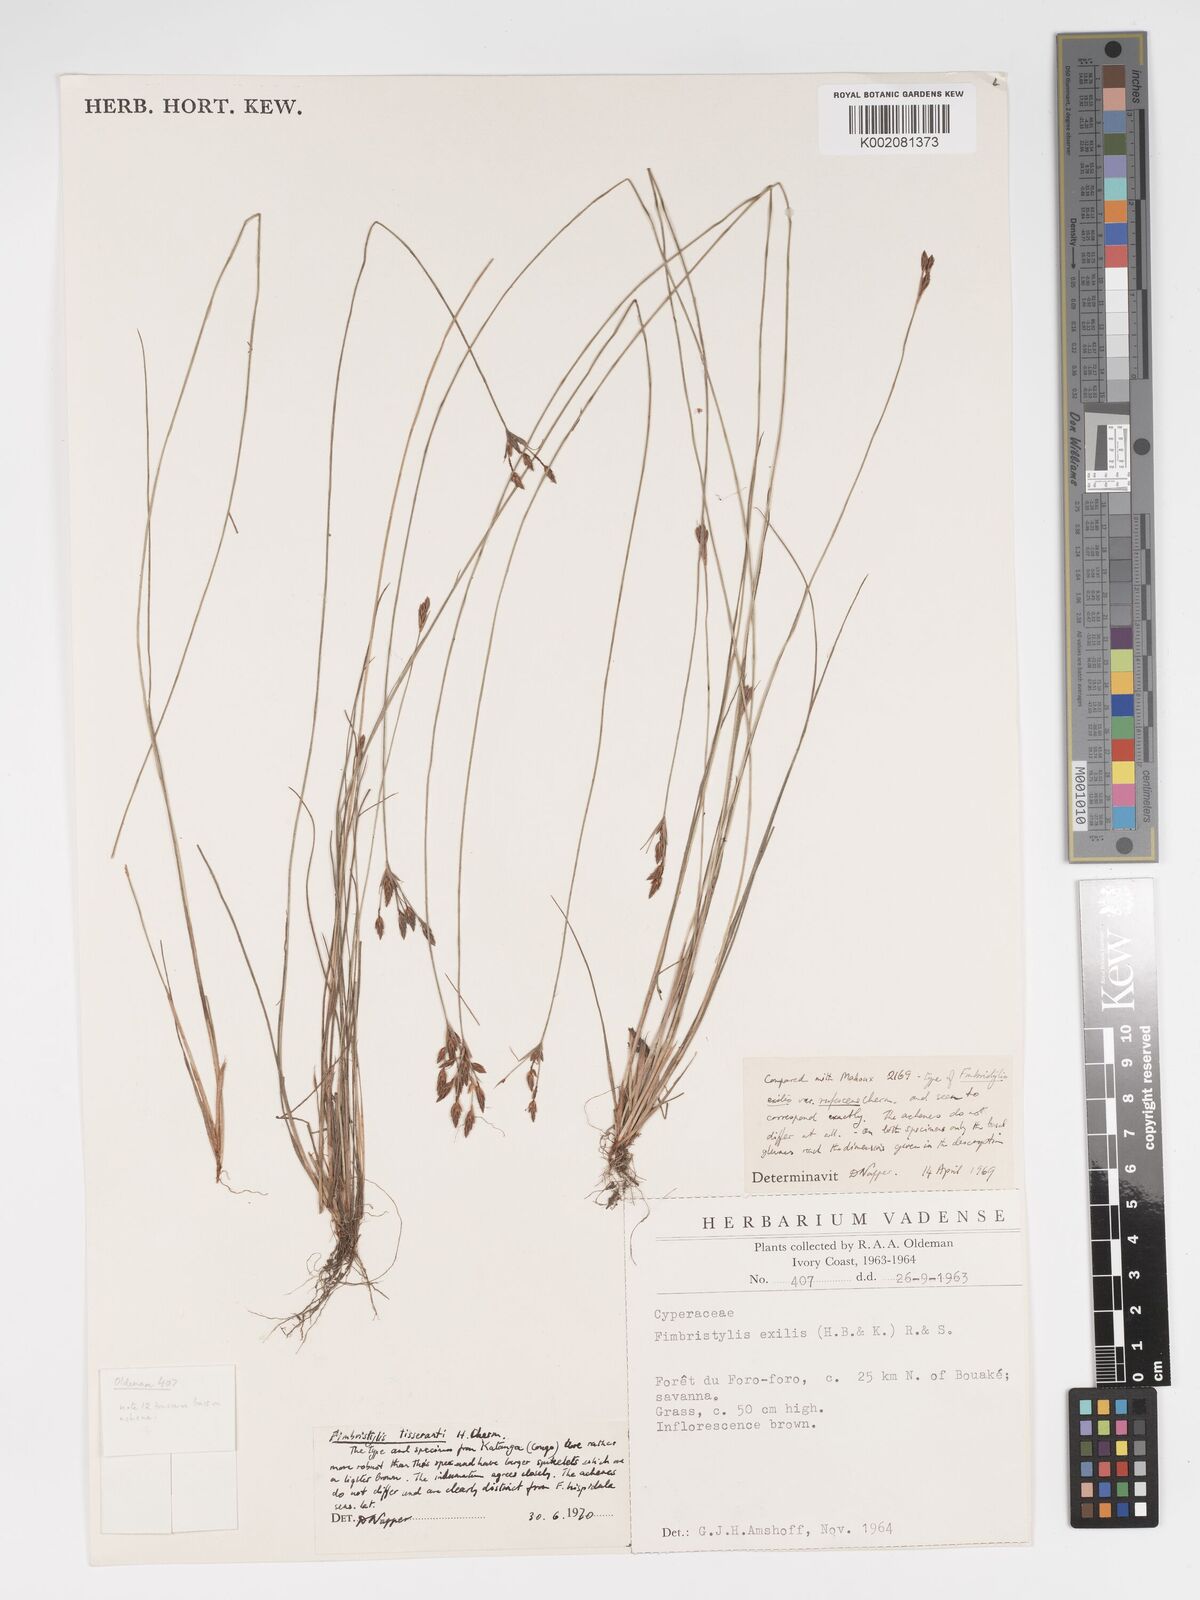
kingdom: Plantae
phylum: Tracheophyta
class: Liliopsida
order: Poales
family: Cyperaceae
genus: Bulbostylis
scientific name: Bulbostylis viridecarinata
